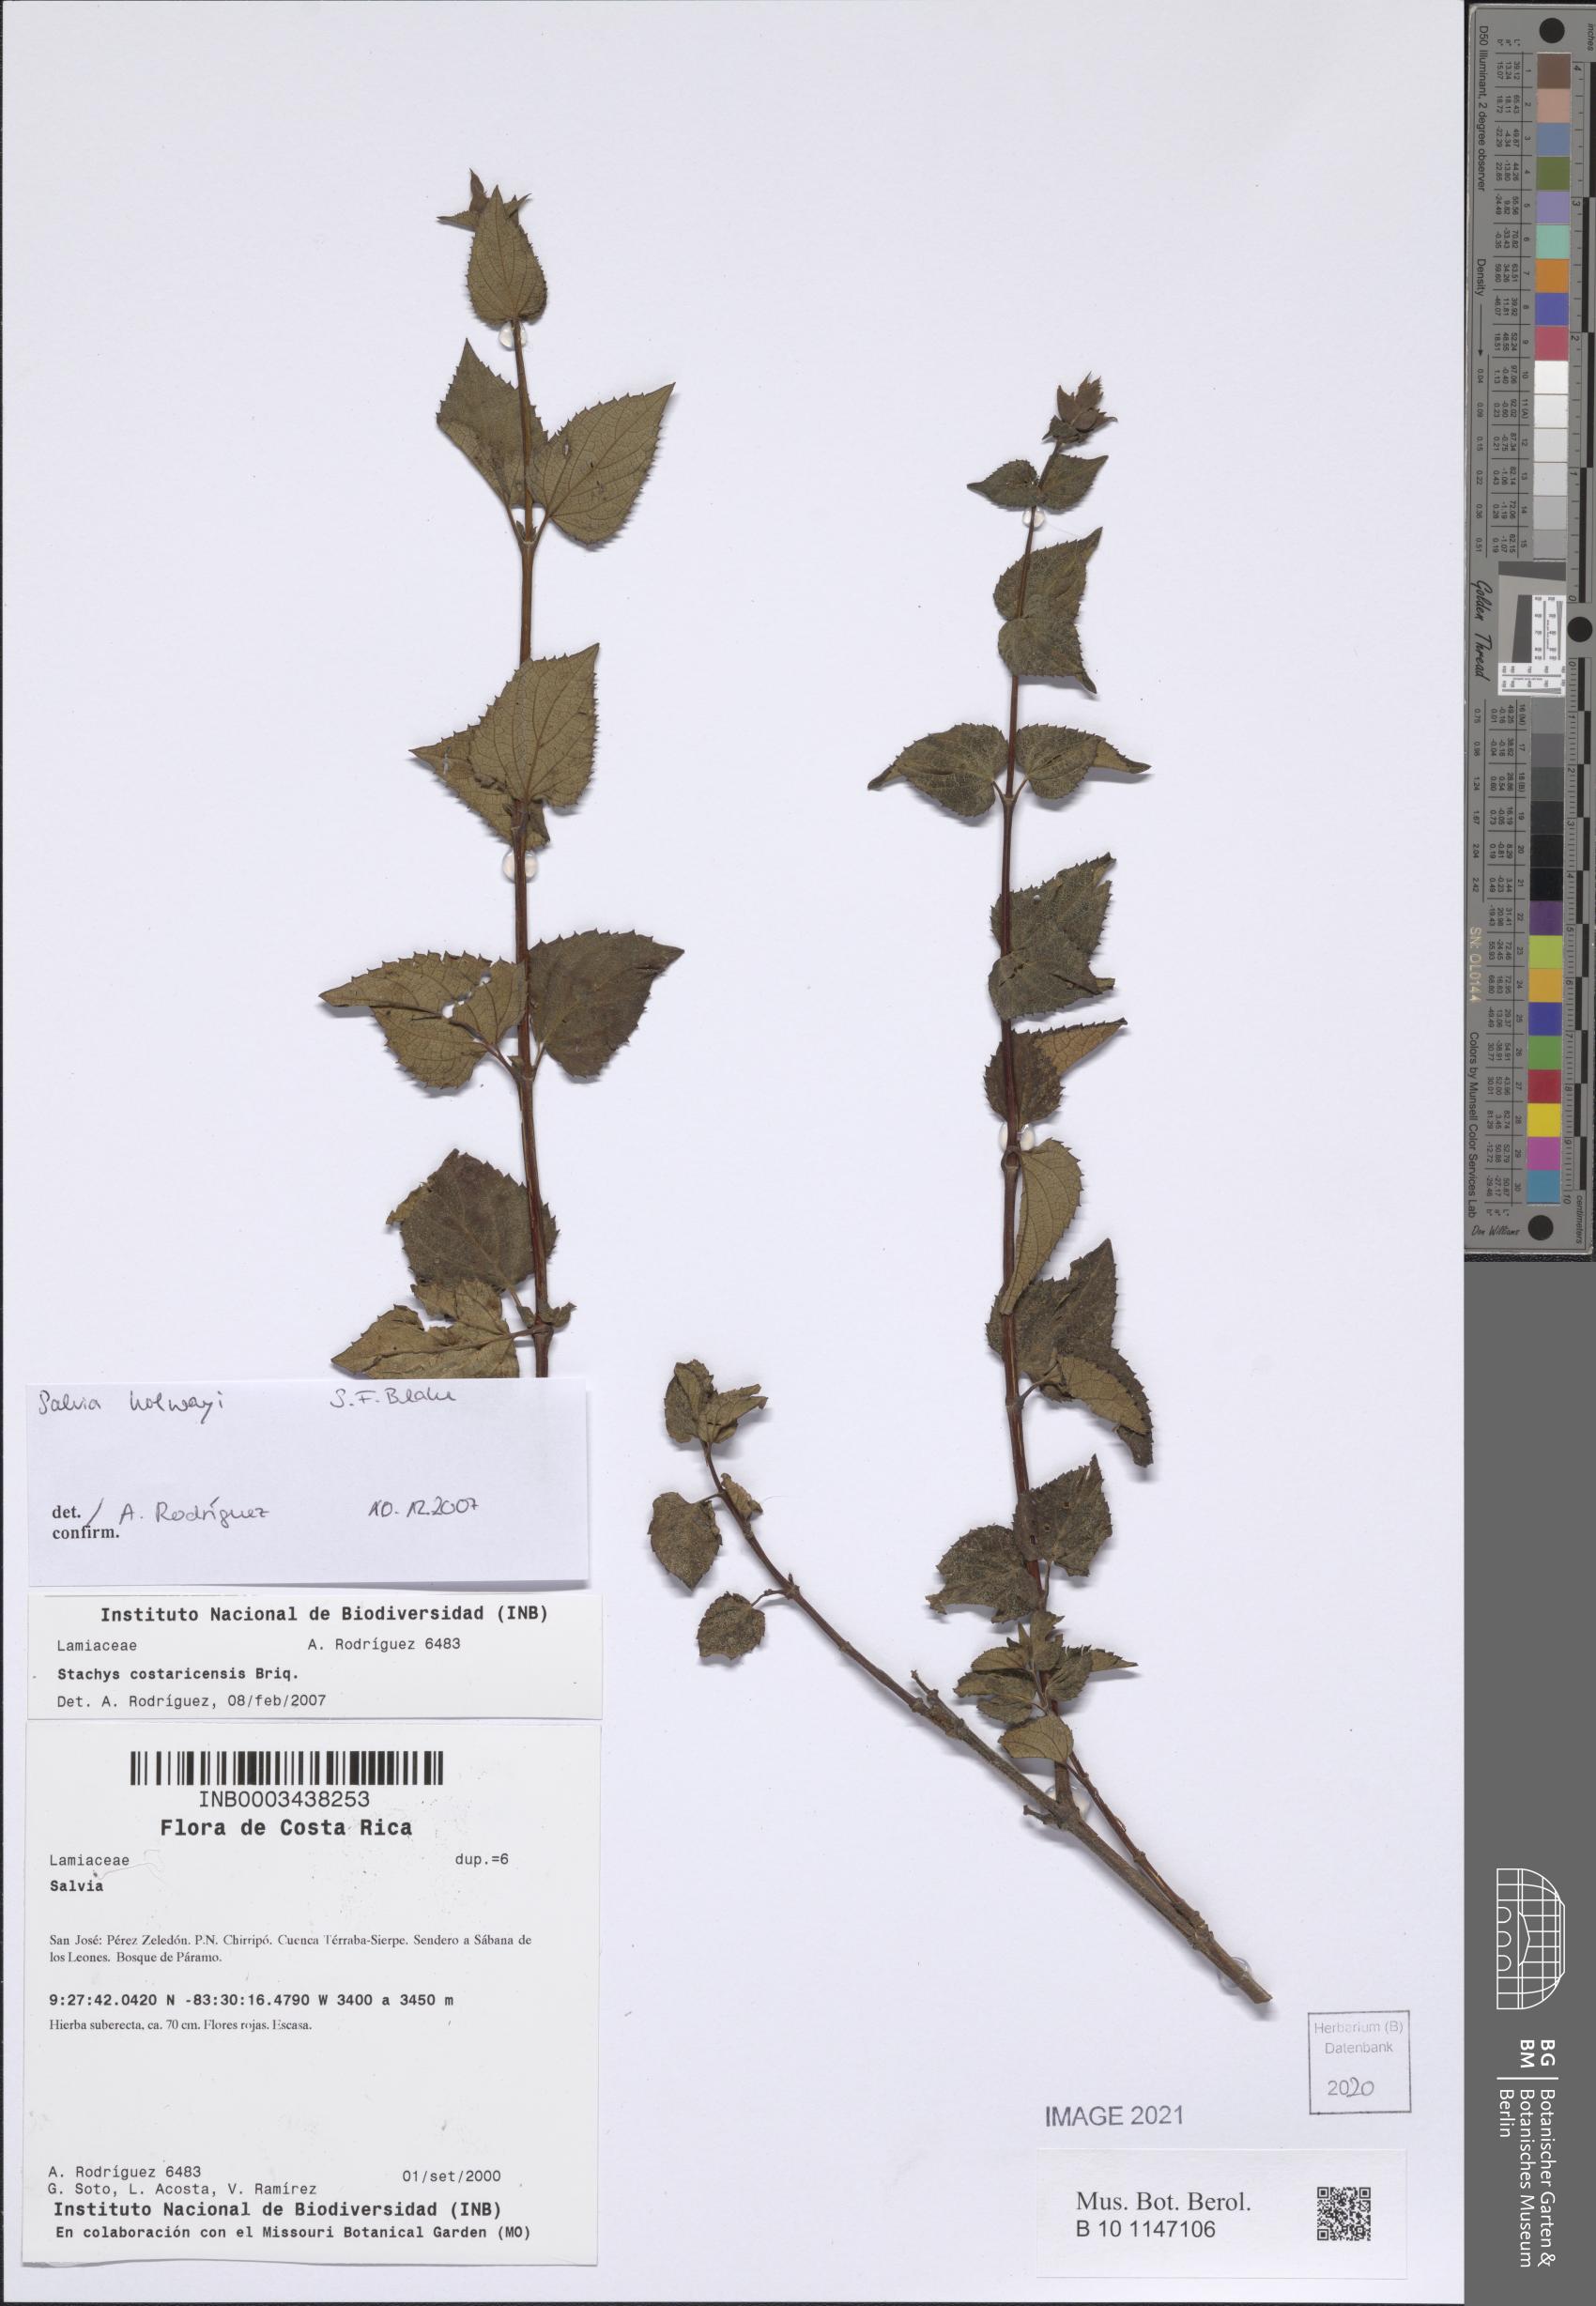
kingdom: Plantae
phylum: Tracheophyta
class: Magnoliopsida
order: Lamiales
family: Lamiaceae
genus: Salvia
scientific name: Salvia holwayi
